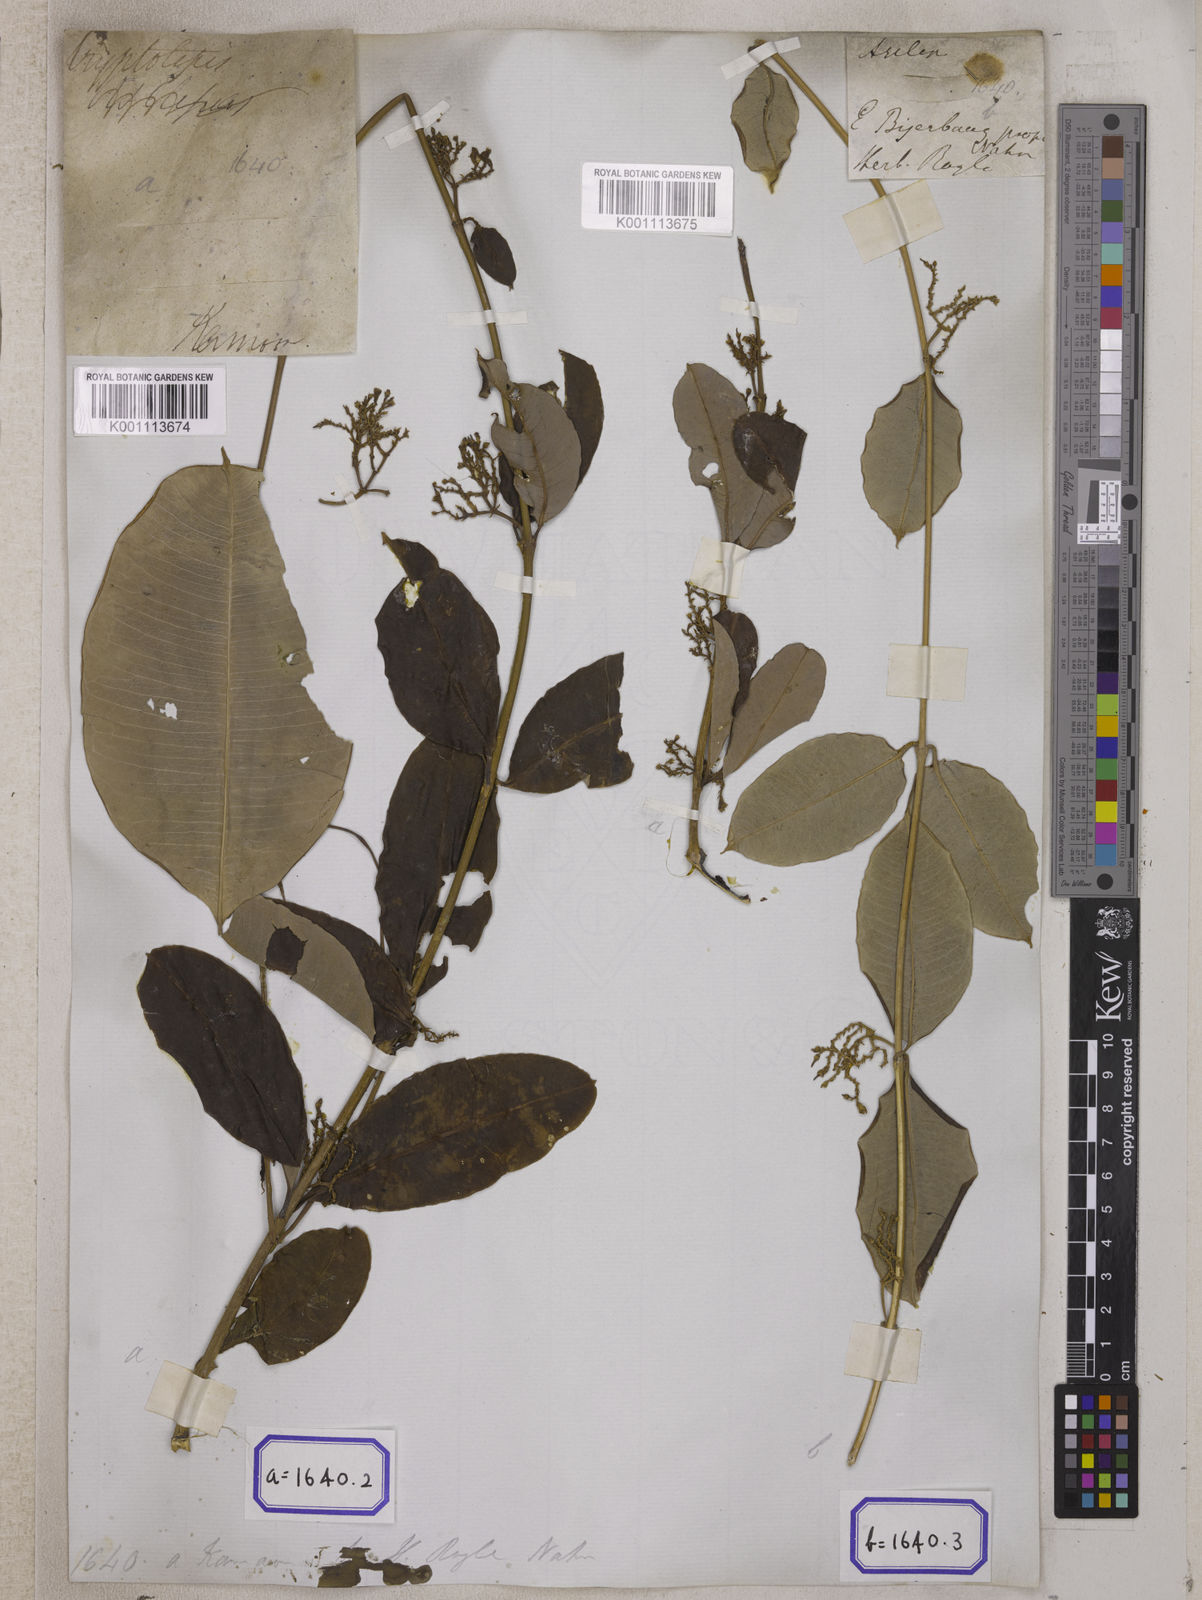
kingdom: Plantae
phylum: Tracheophyta
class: Magnoliopsida
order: Gentianales
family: Apocynaceae
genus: Cryptolepis
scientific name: Cryptolepis
